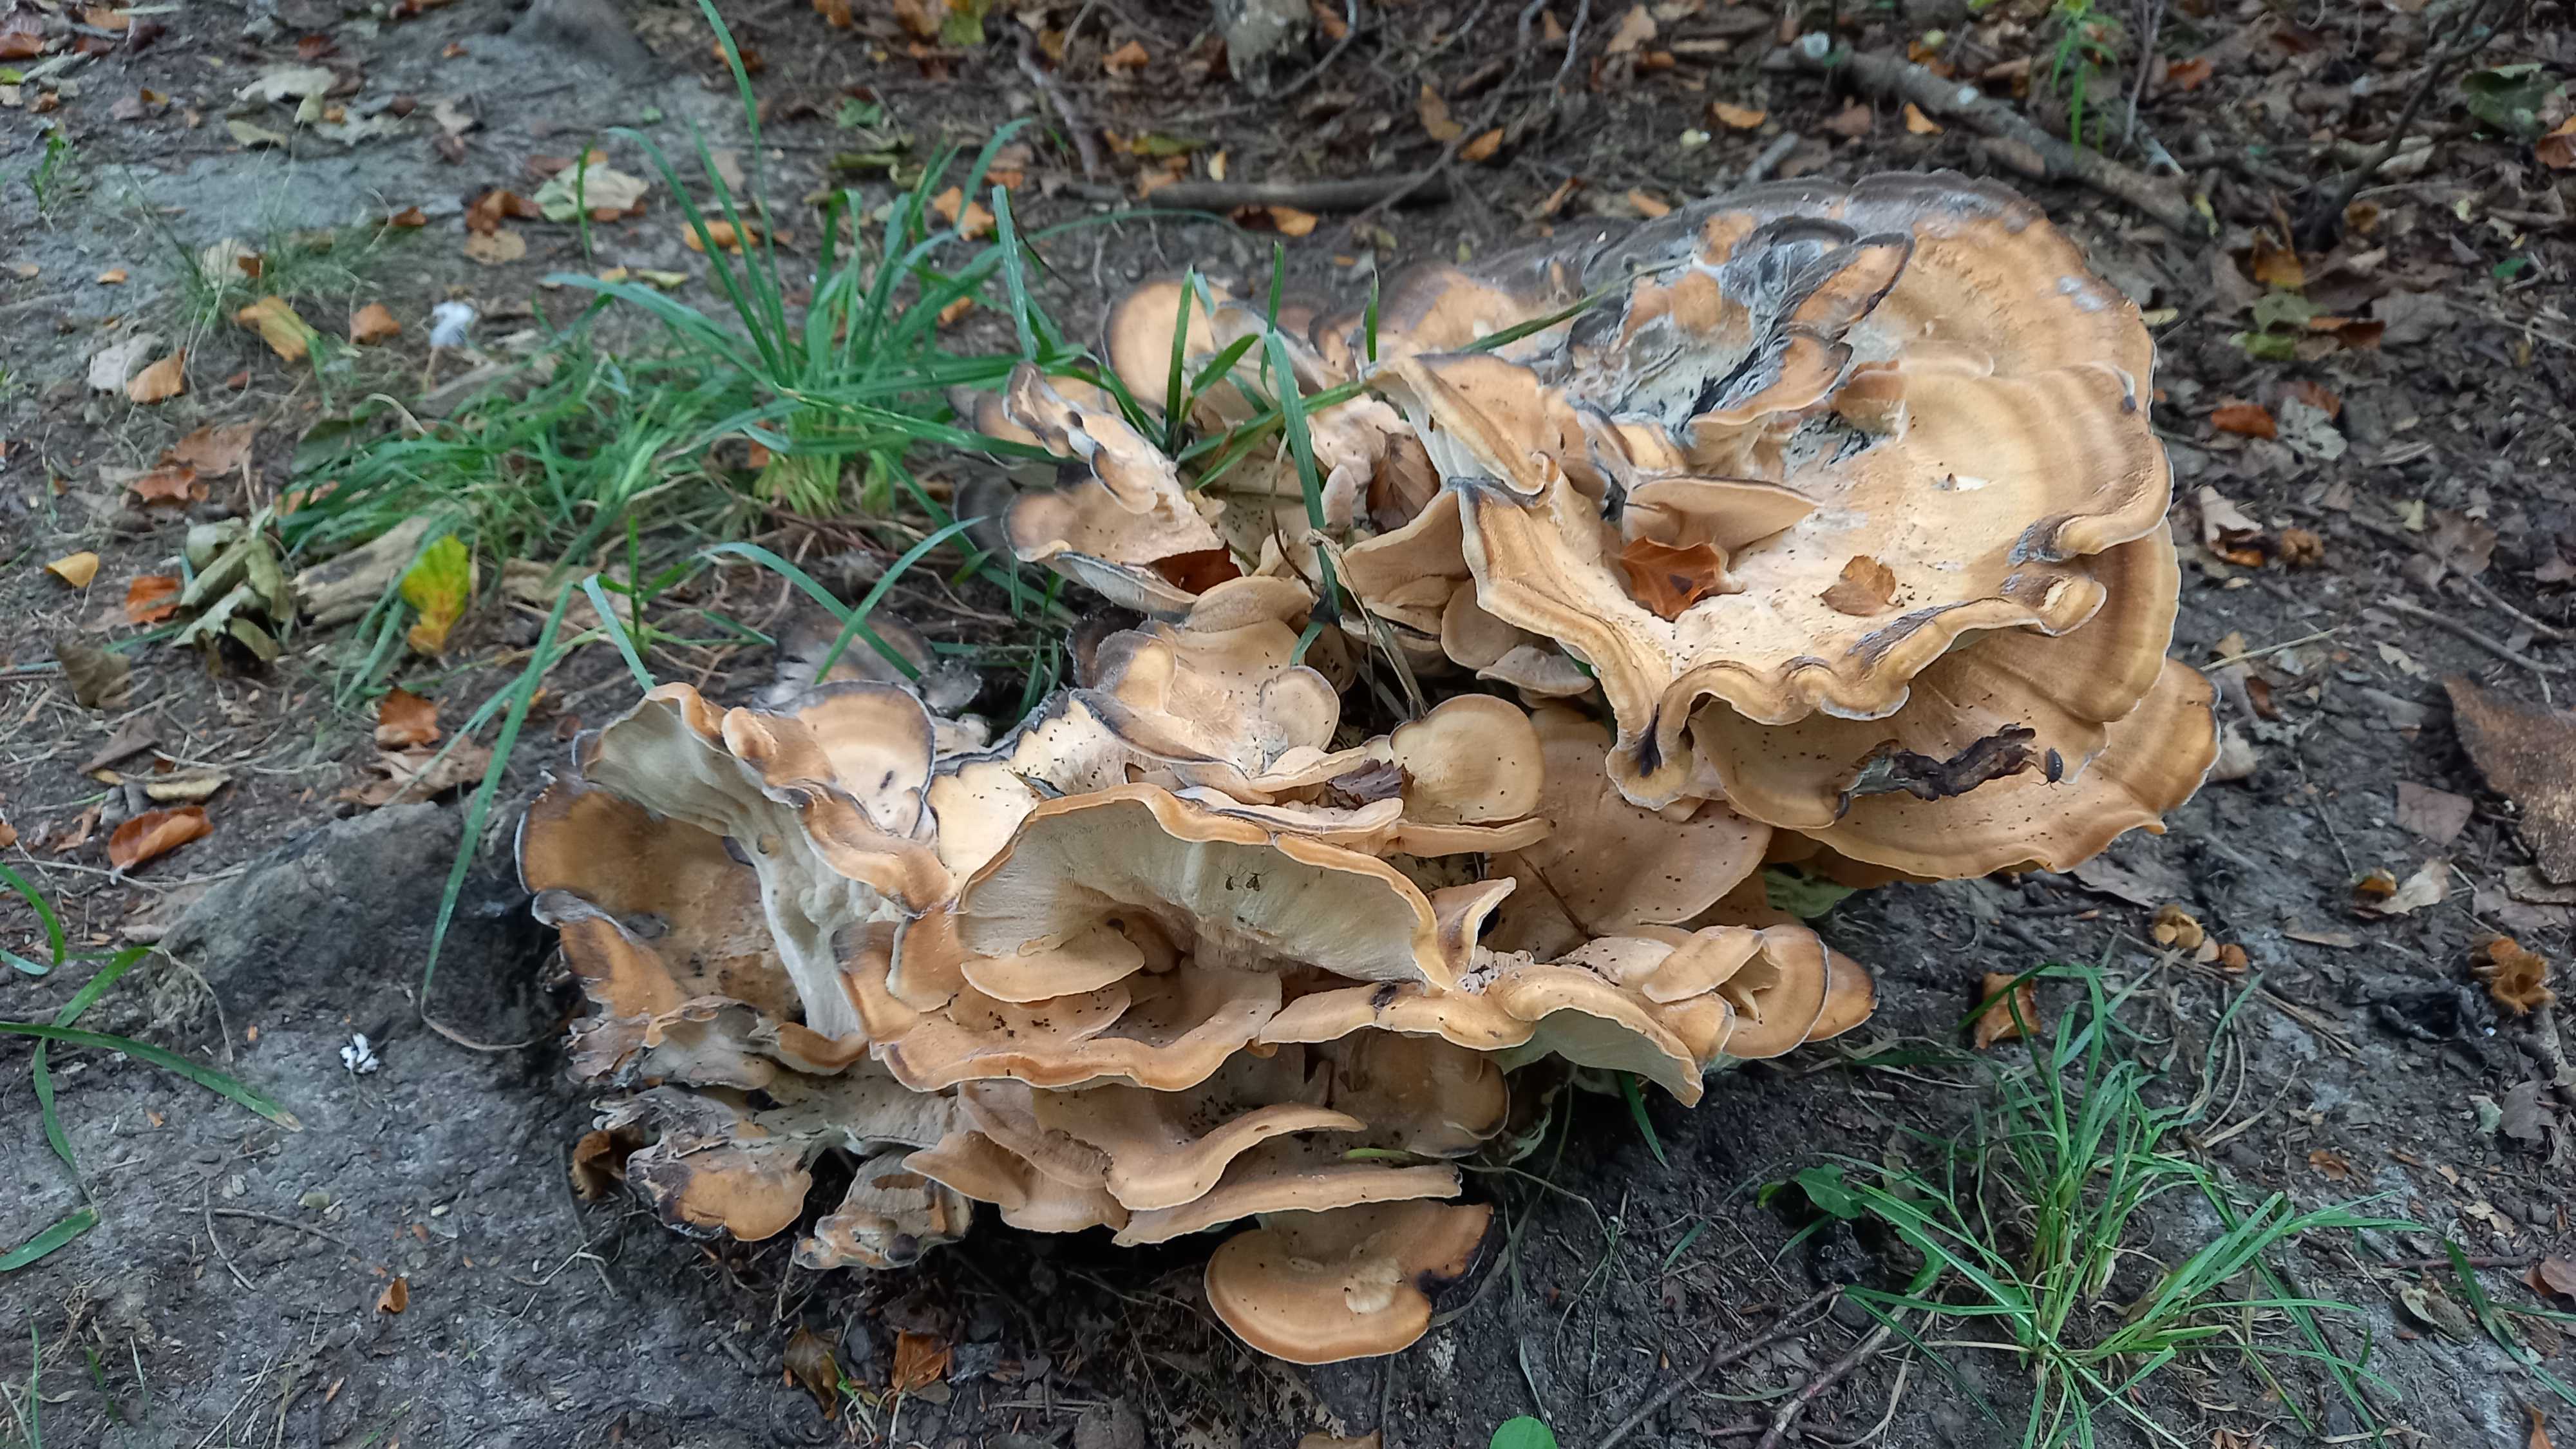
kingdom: Fungi
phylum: Basidiomycota
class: Agaricomycetes
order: Polyporales
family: Meripilaceae
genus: Meripilus
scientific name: Meripilus giganteus
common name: kæmpeporesvamp
